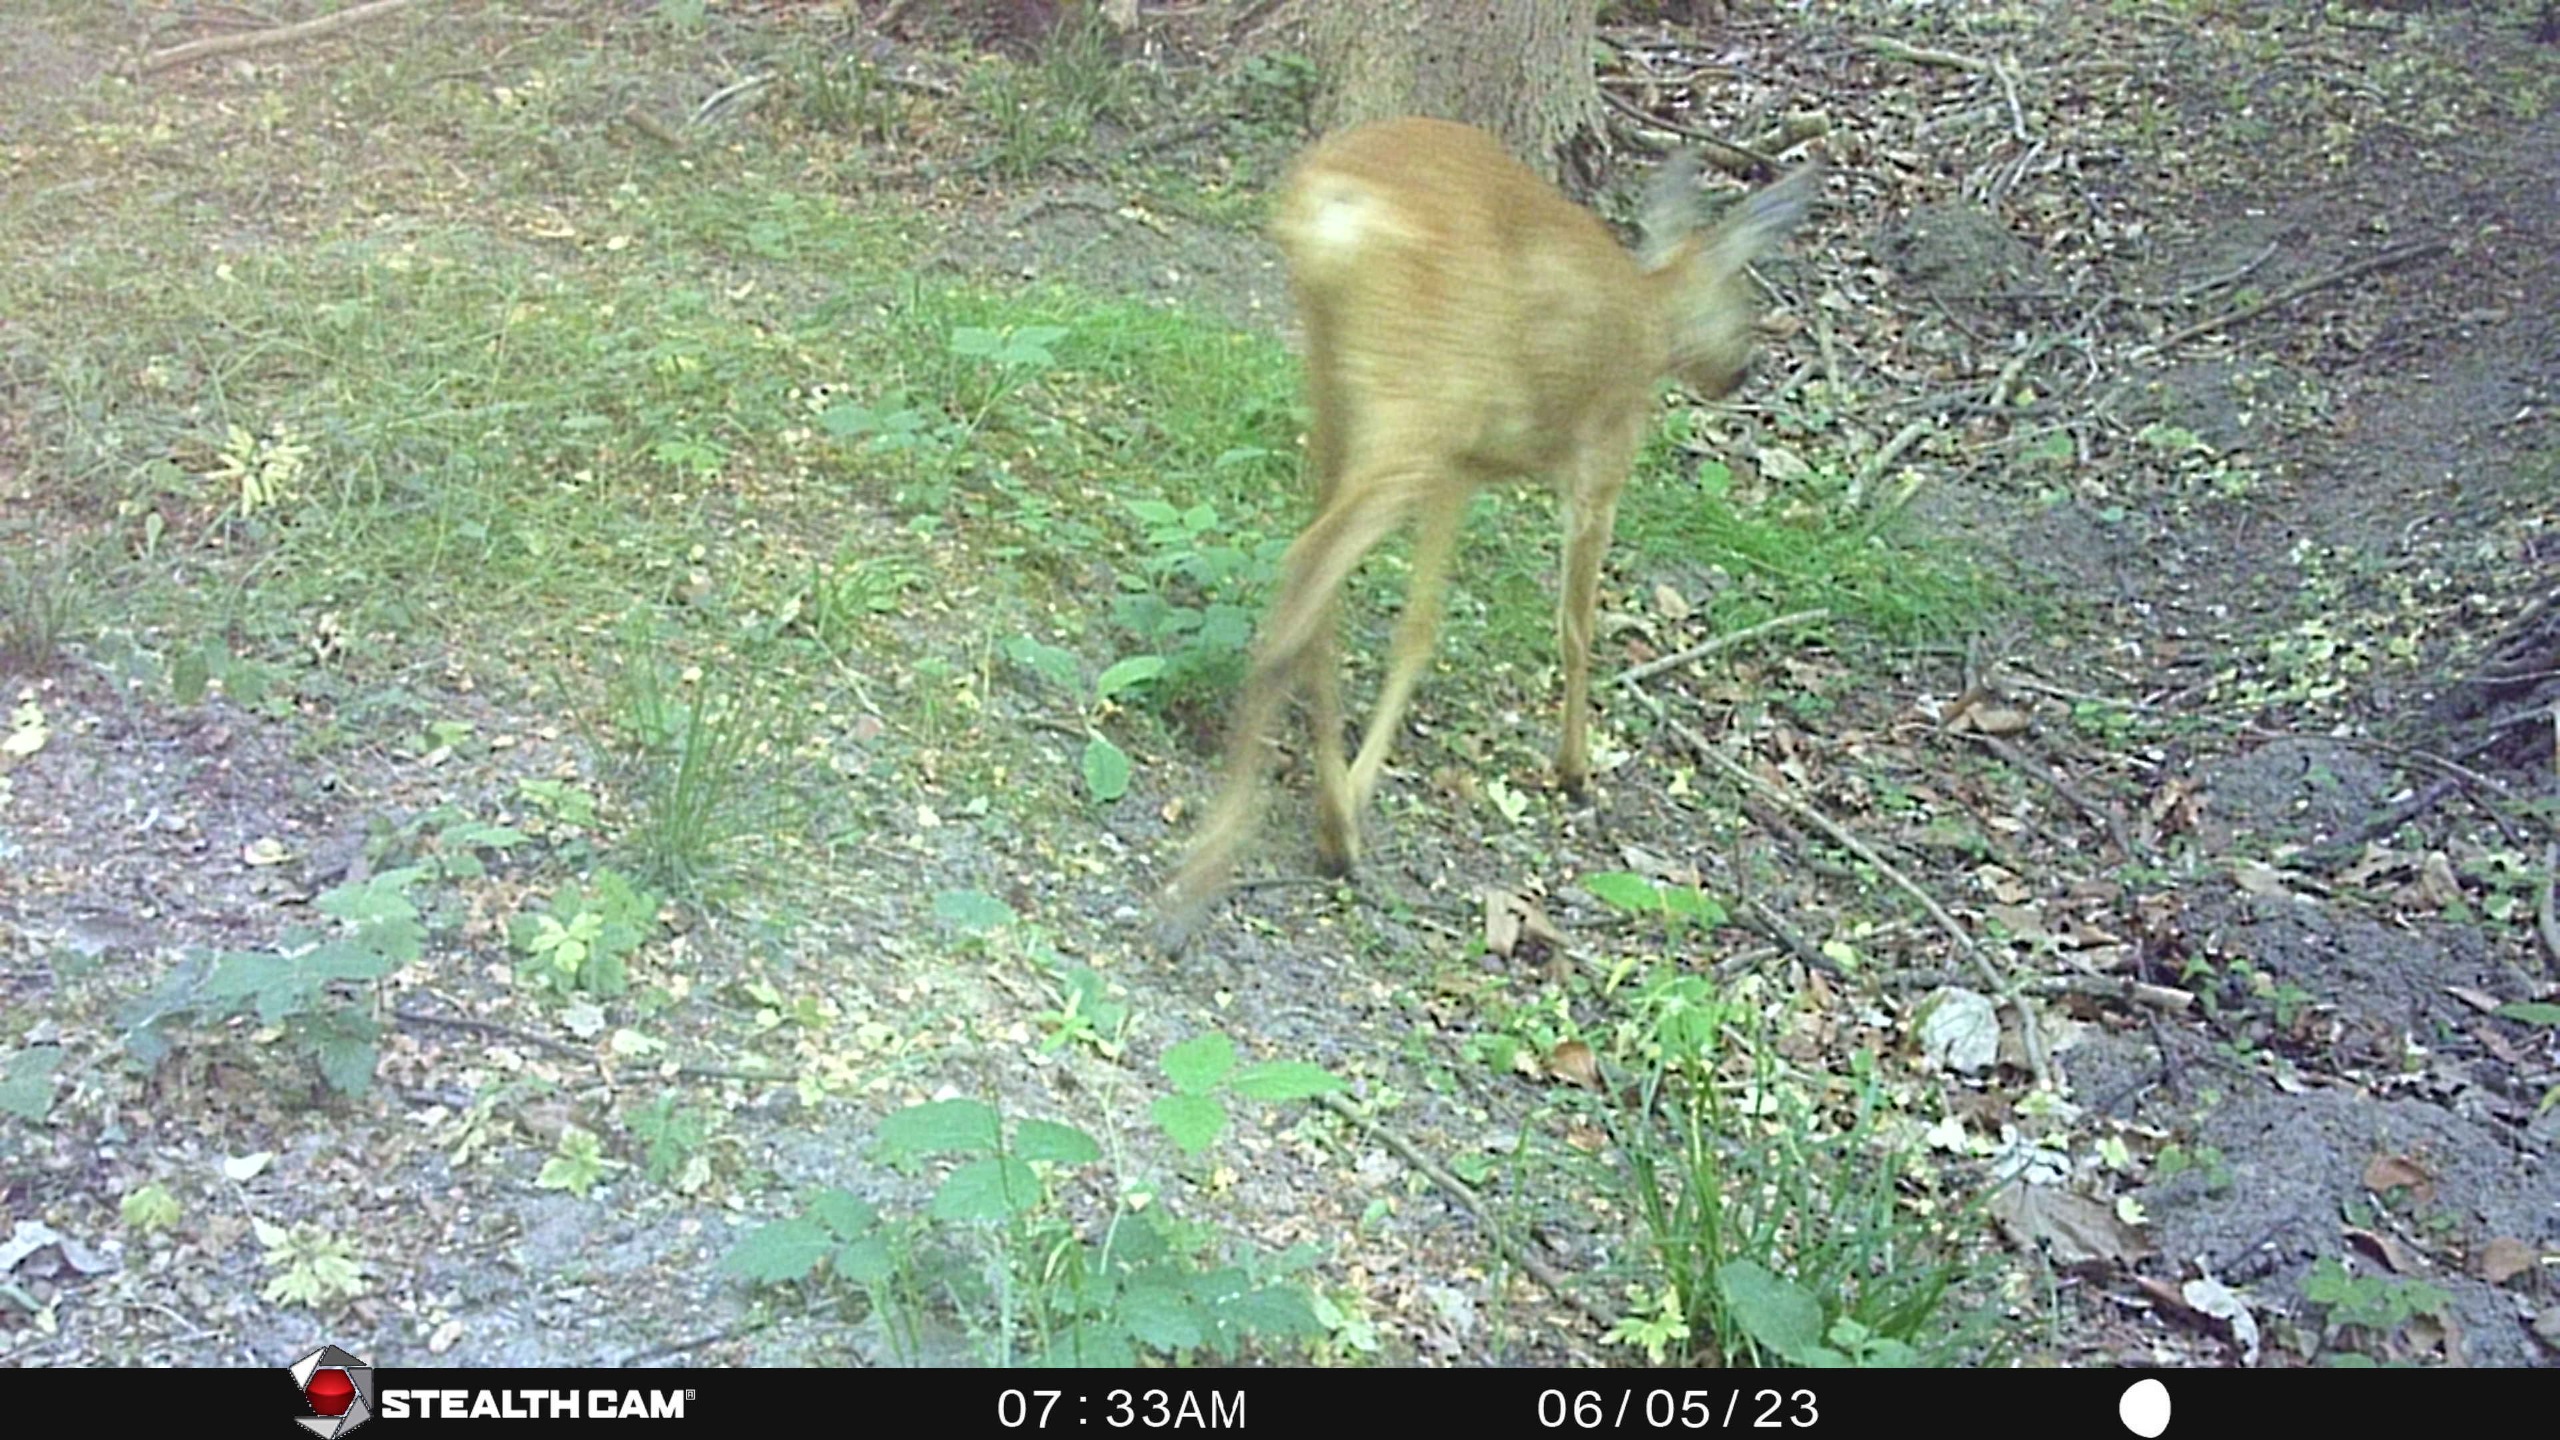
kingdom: Animalia
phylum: Chordata
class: Mammalia
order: Artiodactyla
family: Cervidae
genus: Capreolus
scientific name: Capreolus capreolus
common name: Rådyr
